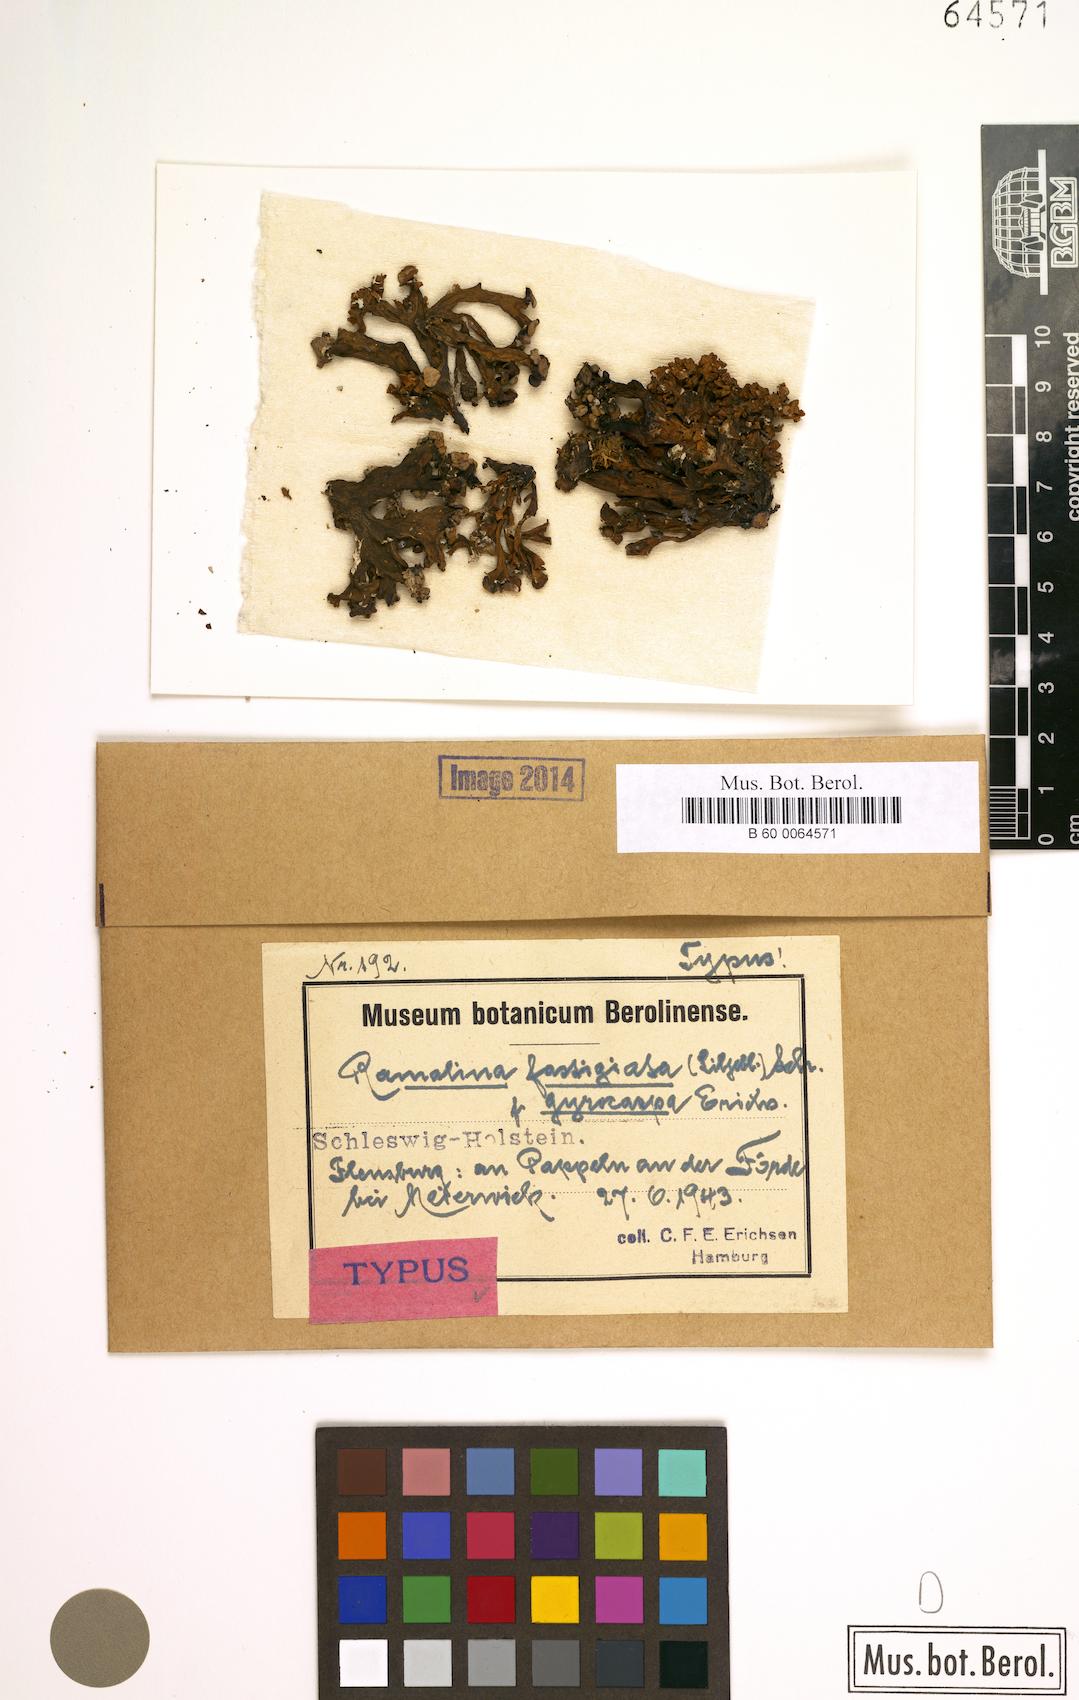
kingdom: Fungi
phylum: Ascomycota
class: Lecanoromycetes
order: Lecanorales
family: Ramalinaceae
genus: Ramalina
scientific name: Ramalina fastigiata
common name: Dotted ribbon lichen
